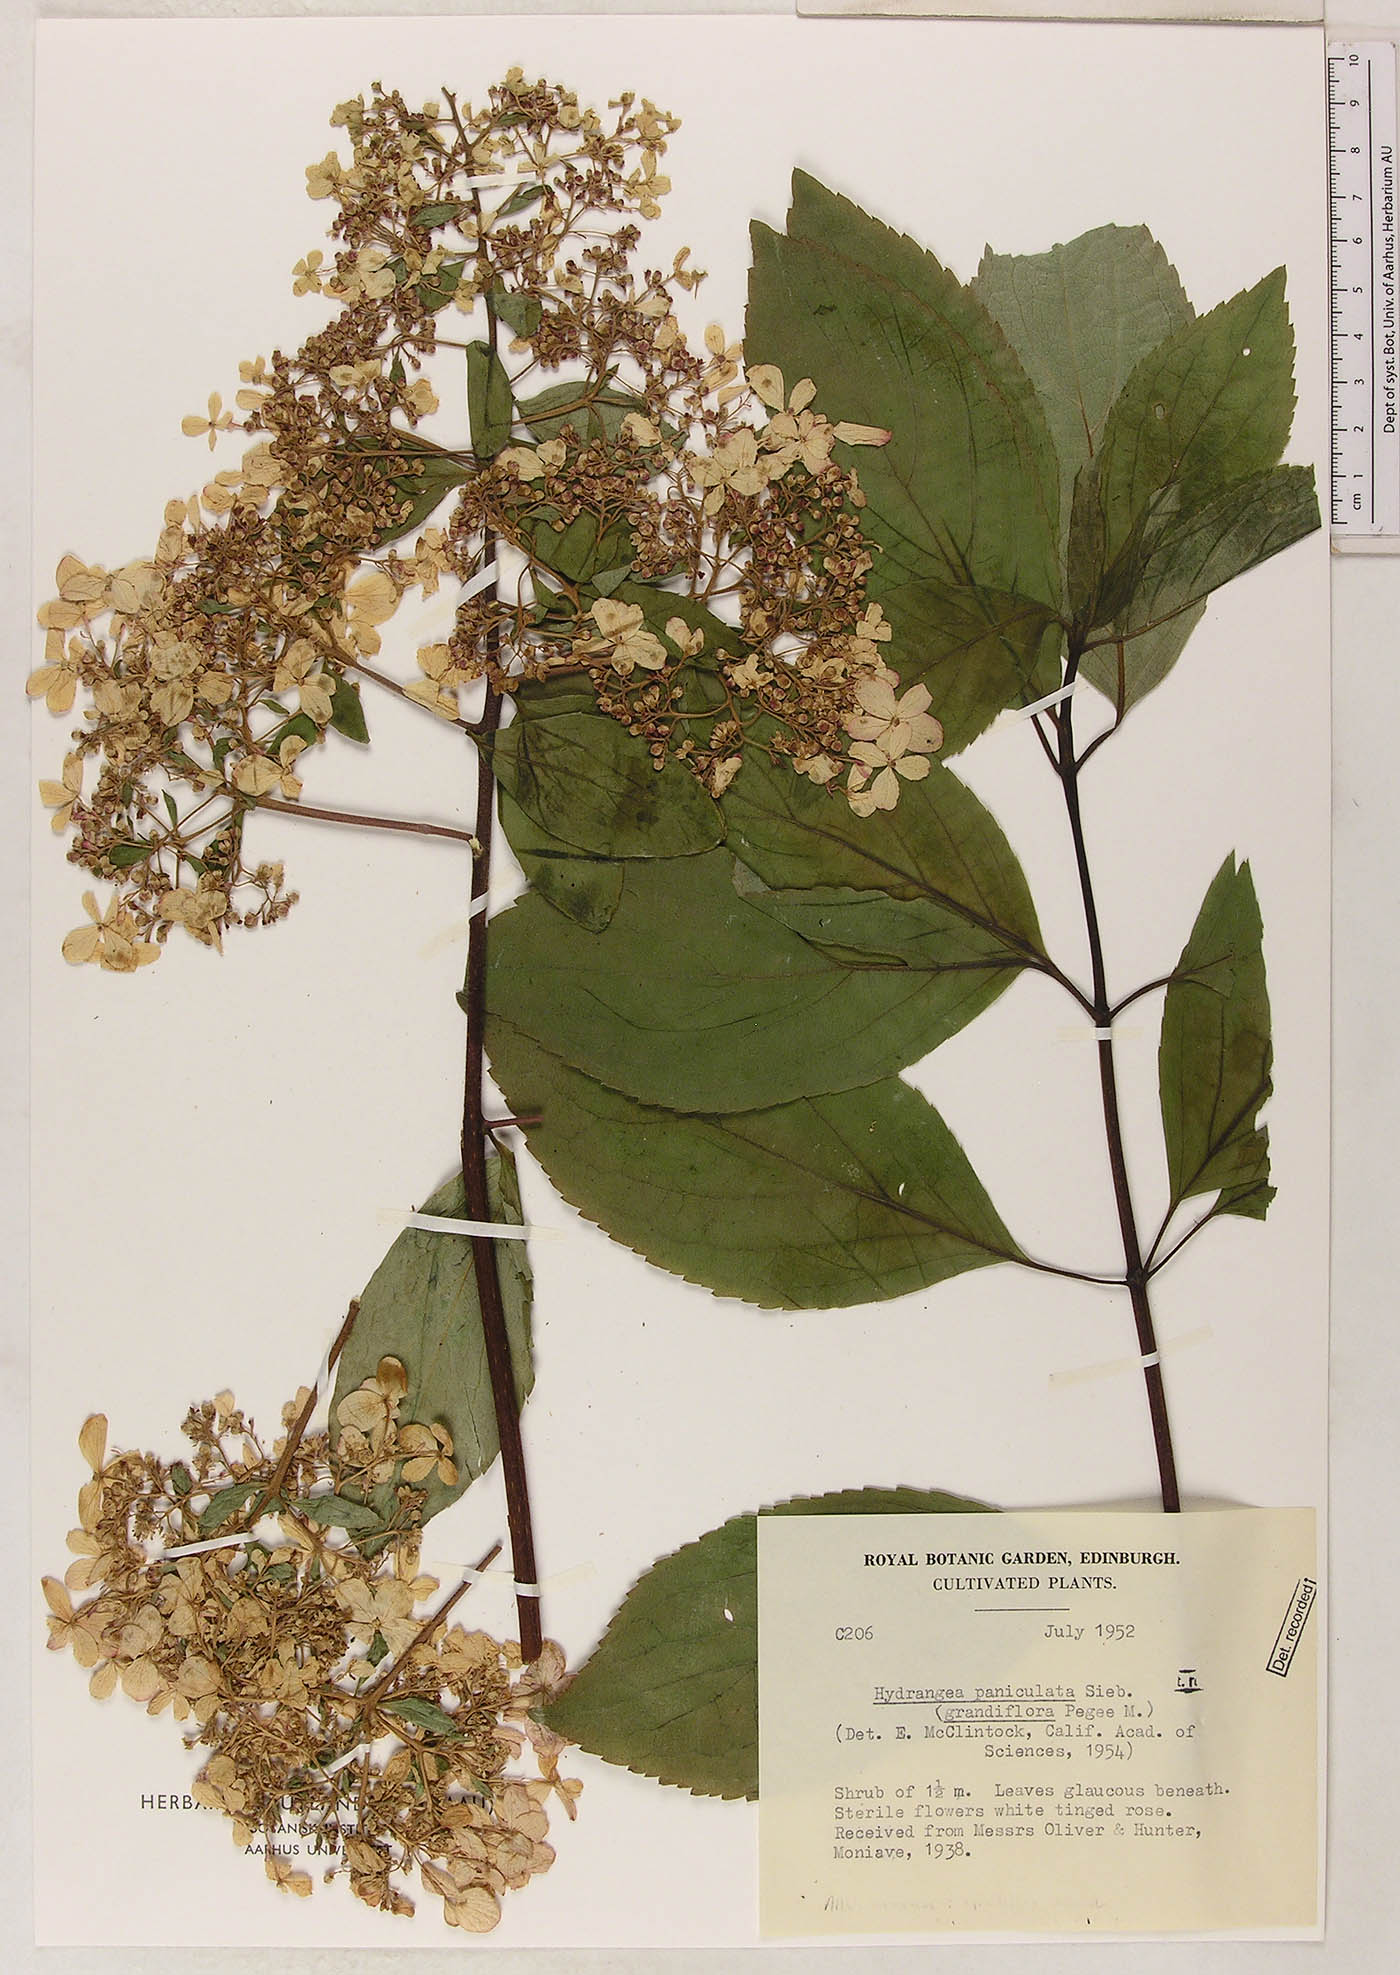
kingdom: Plantae
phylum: Tracheophyta
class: Magnoliopsida
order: Cornales
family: Hydrangeaceae
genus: Hydrangea
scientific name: Hydrangea paniculata
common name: Panicled hydrangea
